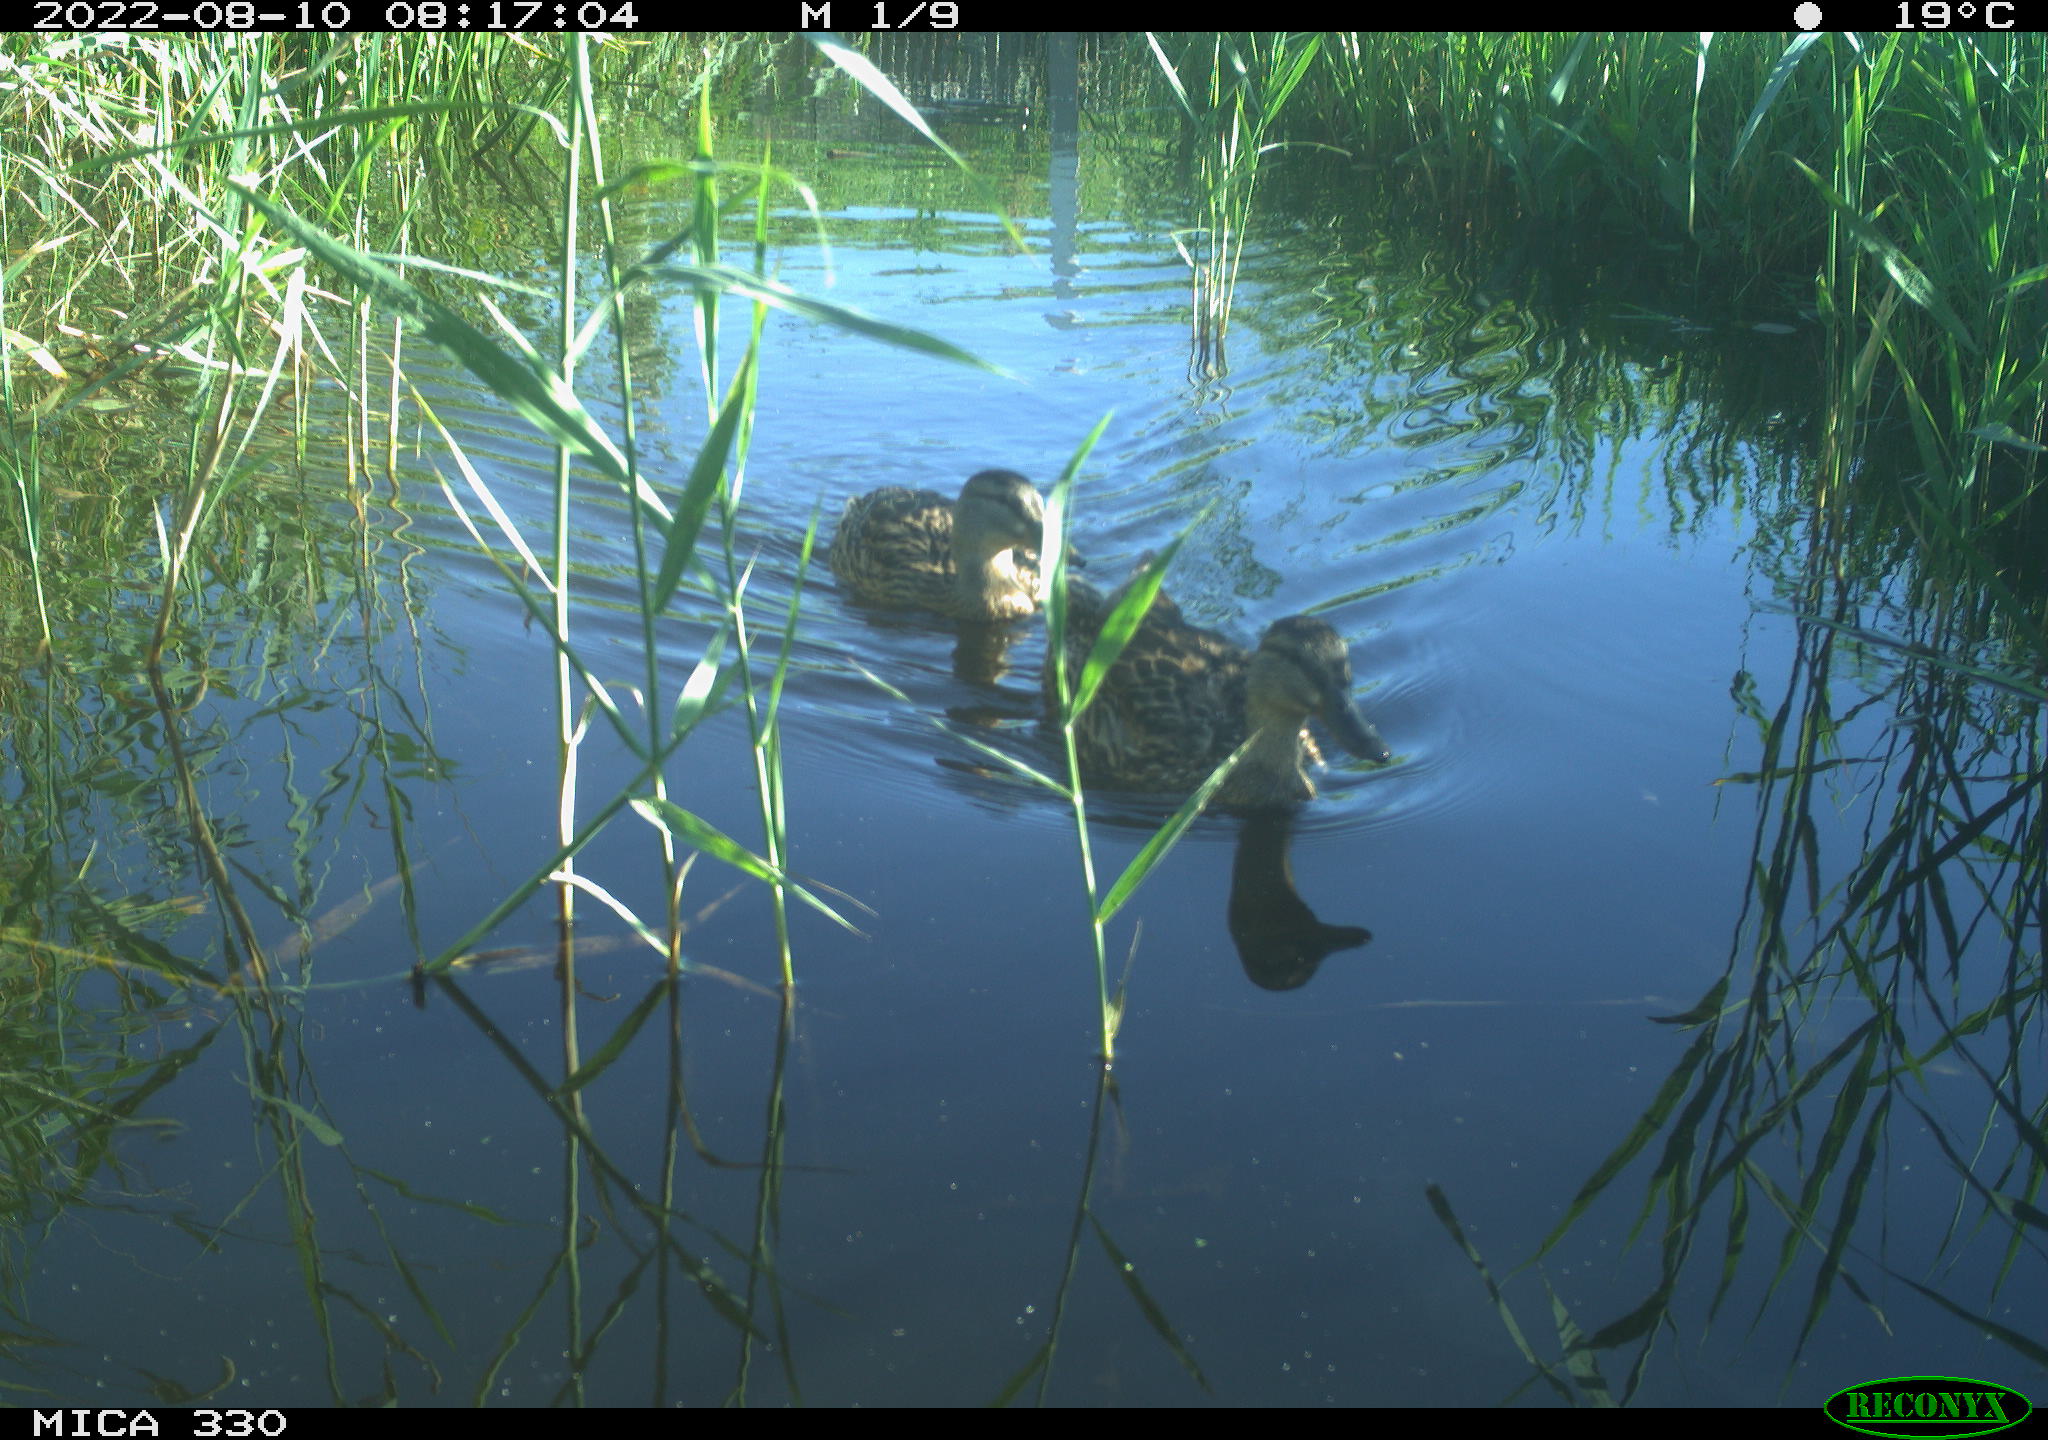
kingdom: Animalia
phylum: Chordata
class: Aves
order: Anseriformes
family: Anatidae
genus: Mareca
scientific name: Mareca strepera
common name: Gadwall
